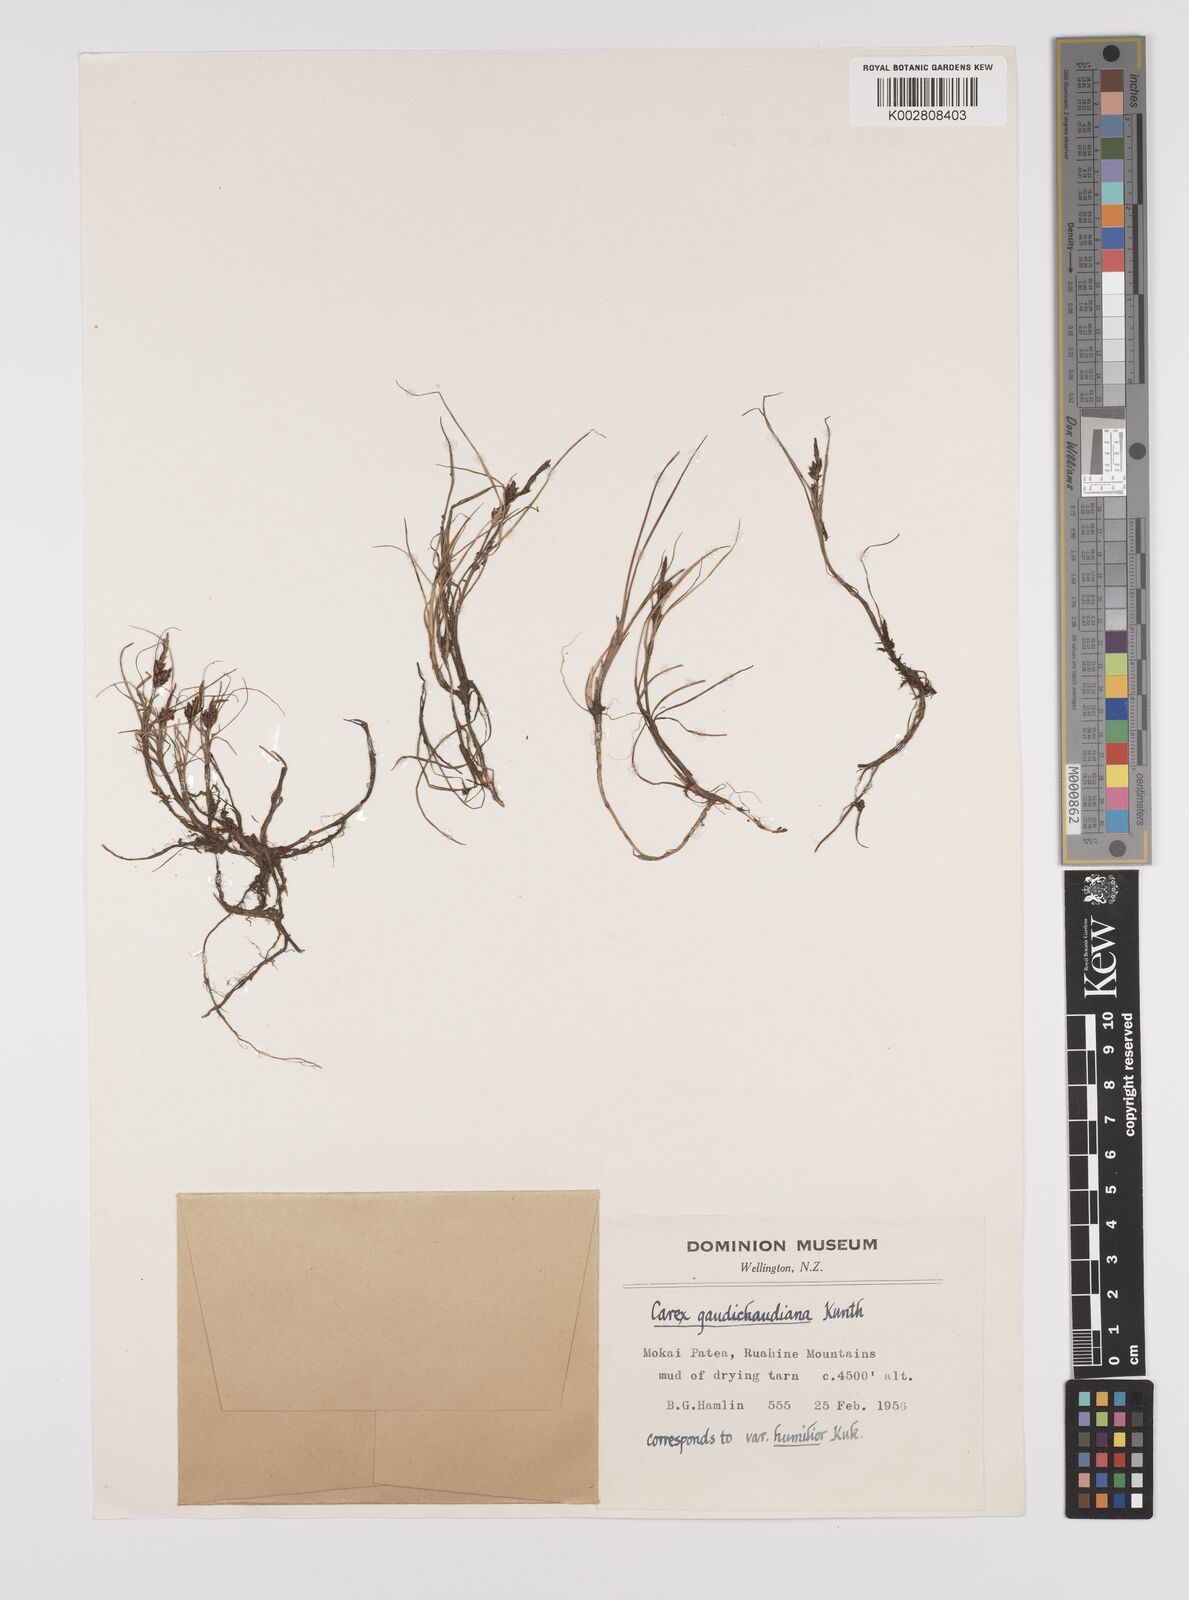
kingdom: Plantae
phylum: Tracheophyta
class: Liliopsida
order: Poales
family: Cyperaceae
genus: Carex
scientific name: Carex gaudichaudiana
